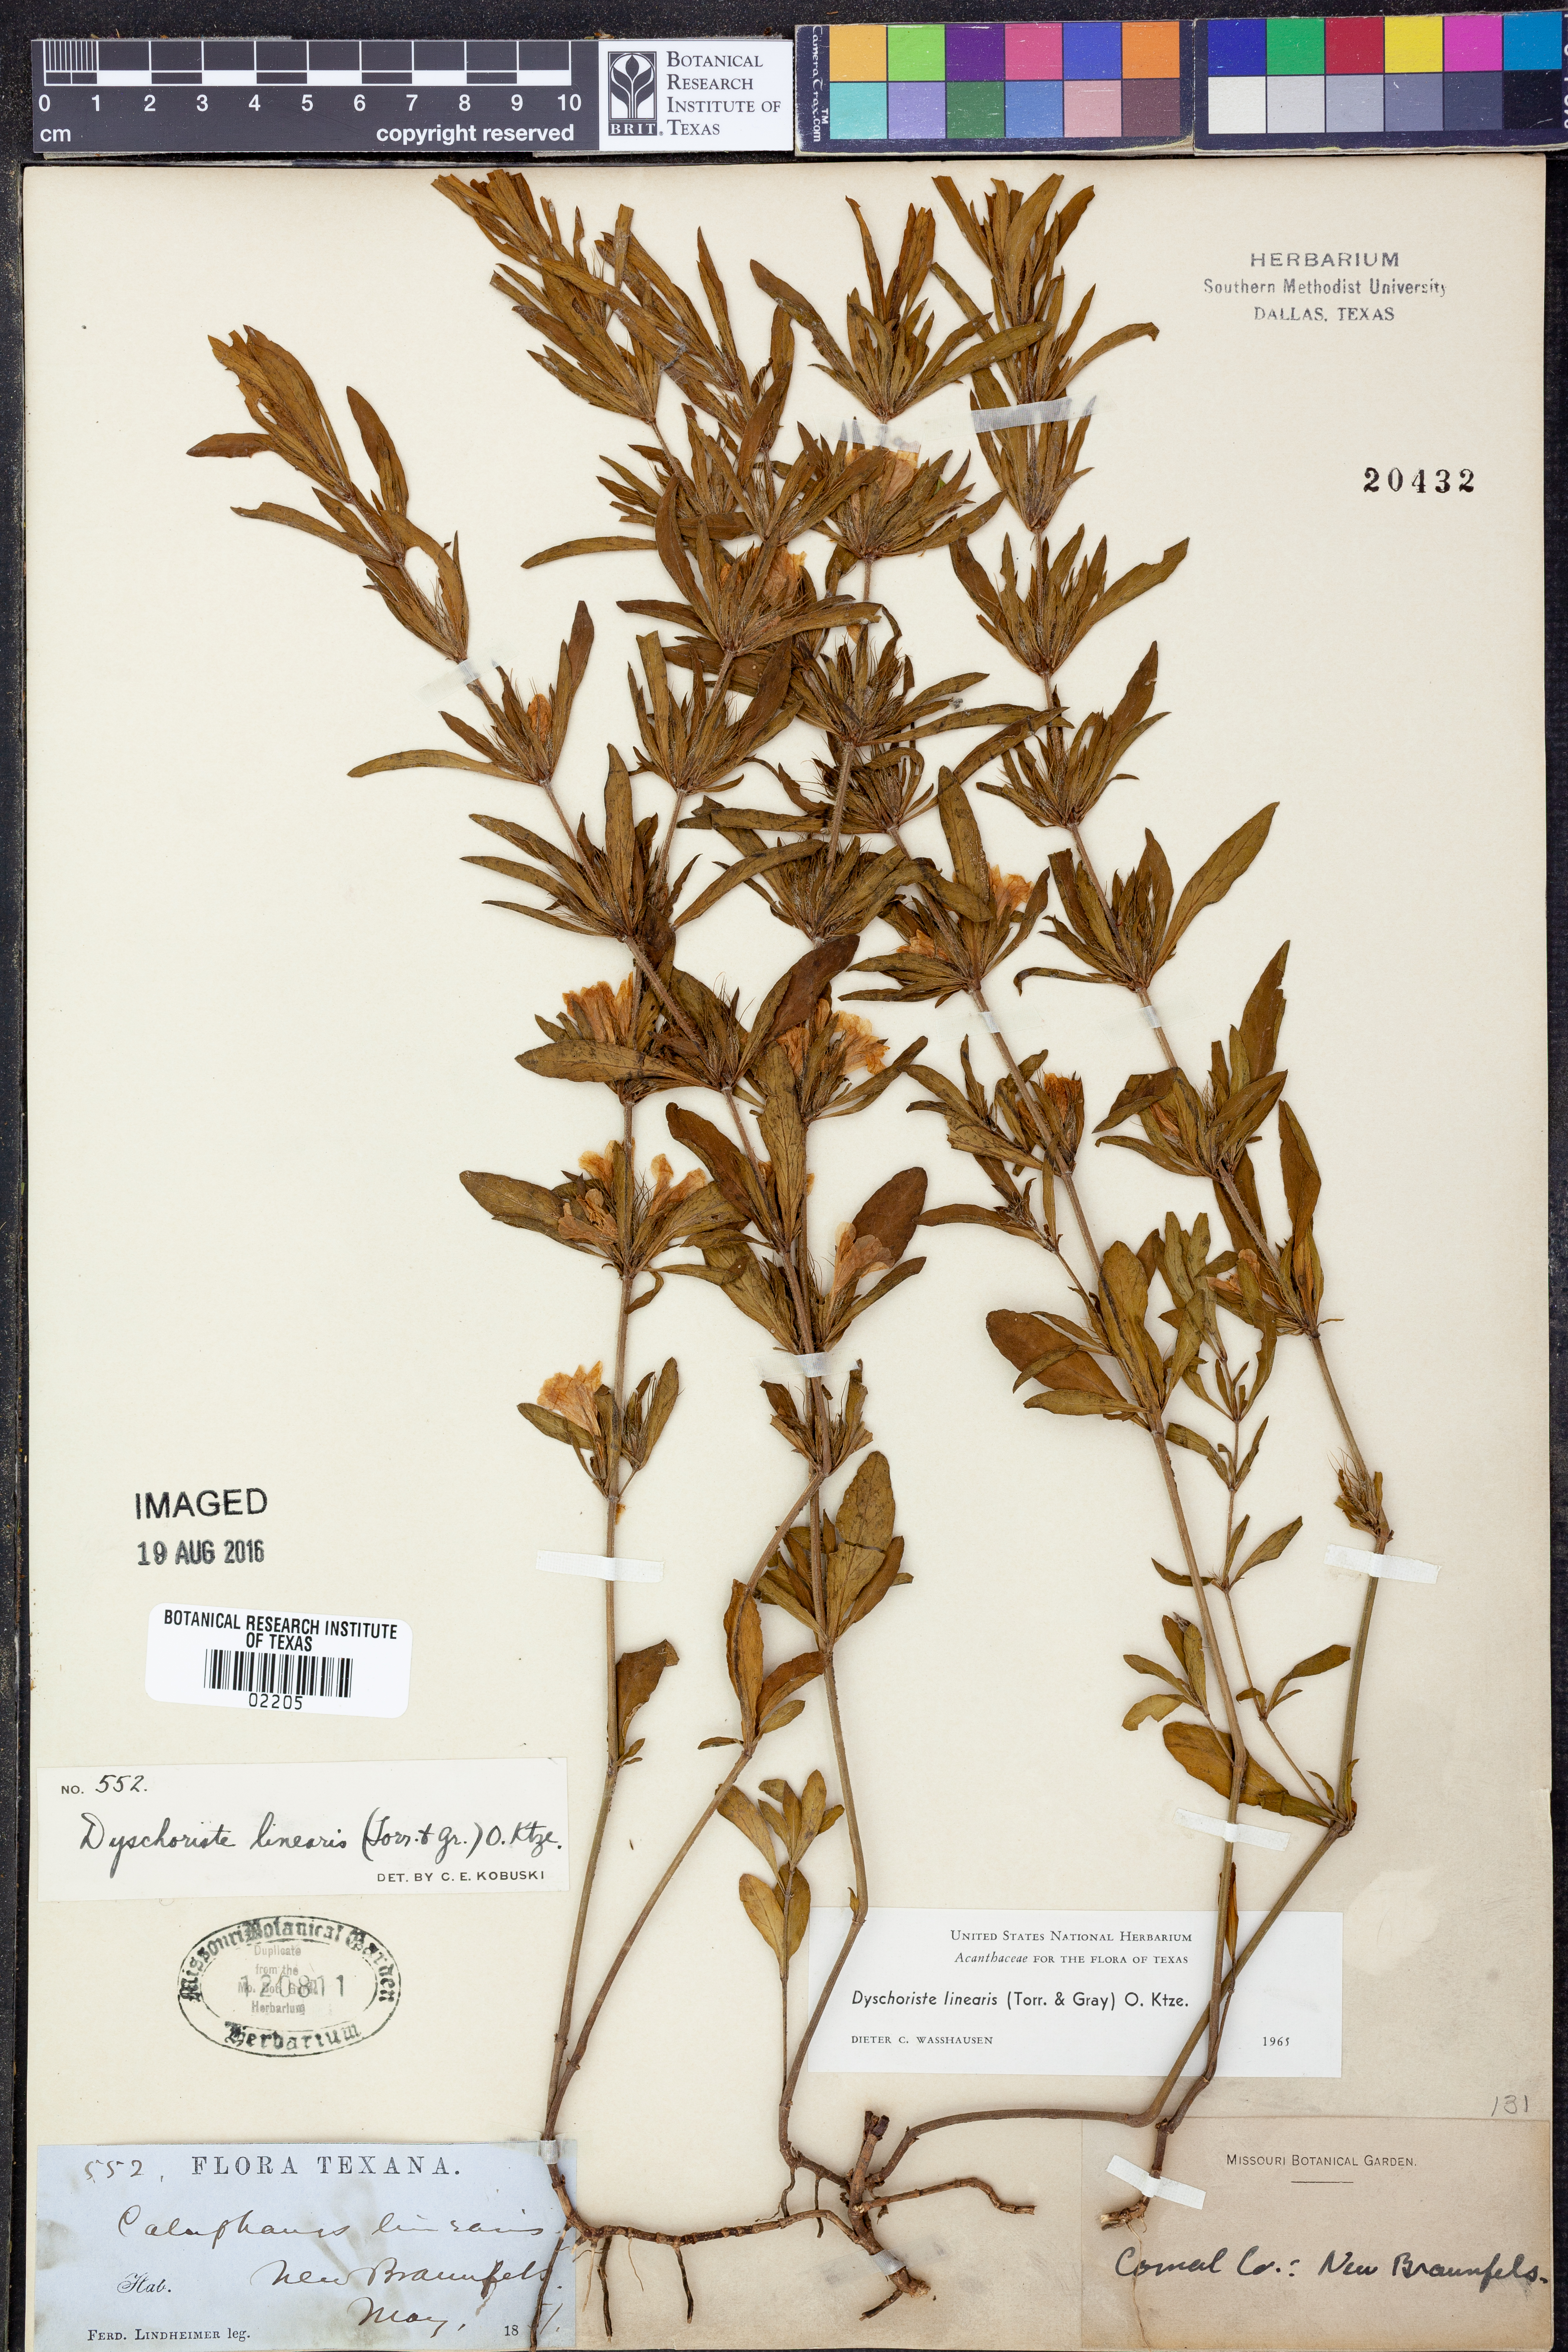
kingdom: Plantae
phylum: Tracheophyta
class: Magnoliopsida
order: Lamiales
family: Acanthaceae
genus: Dyschoriste
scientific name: Dyschoriste linearis
